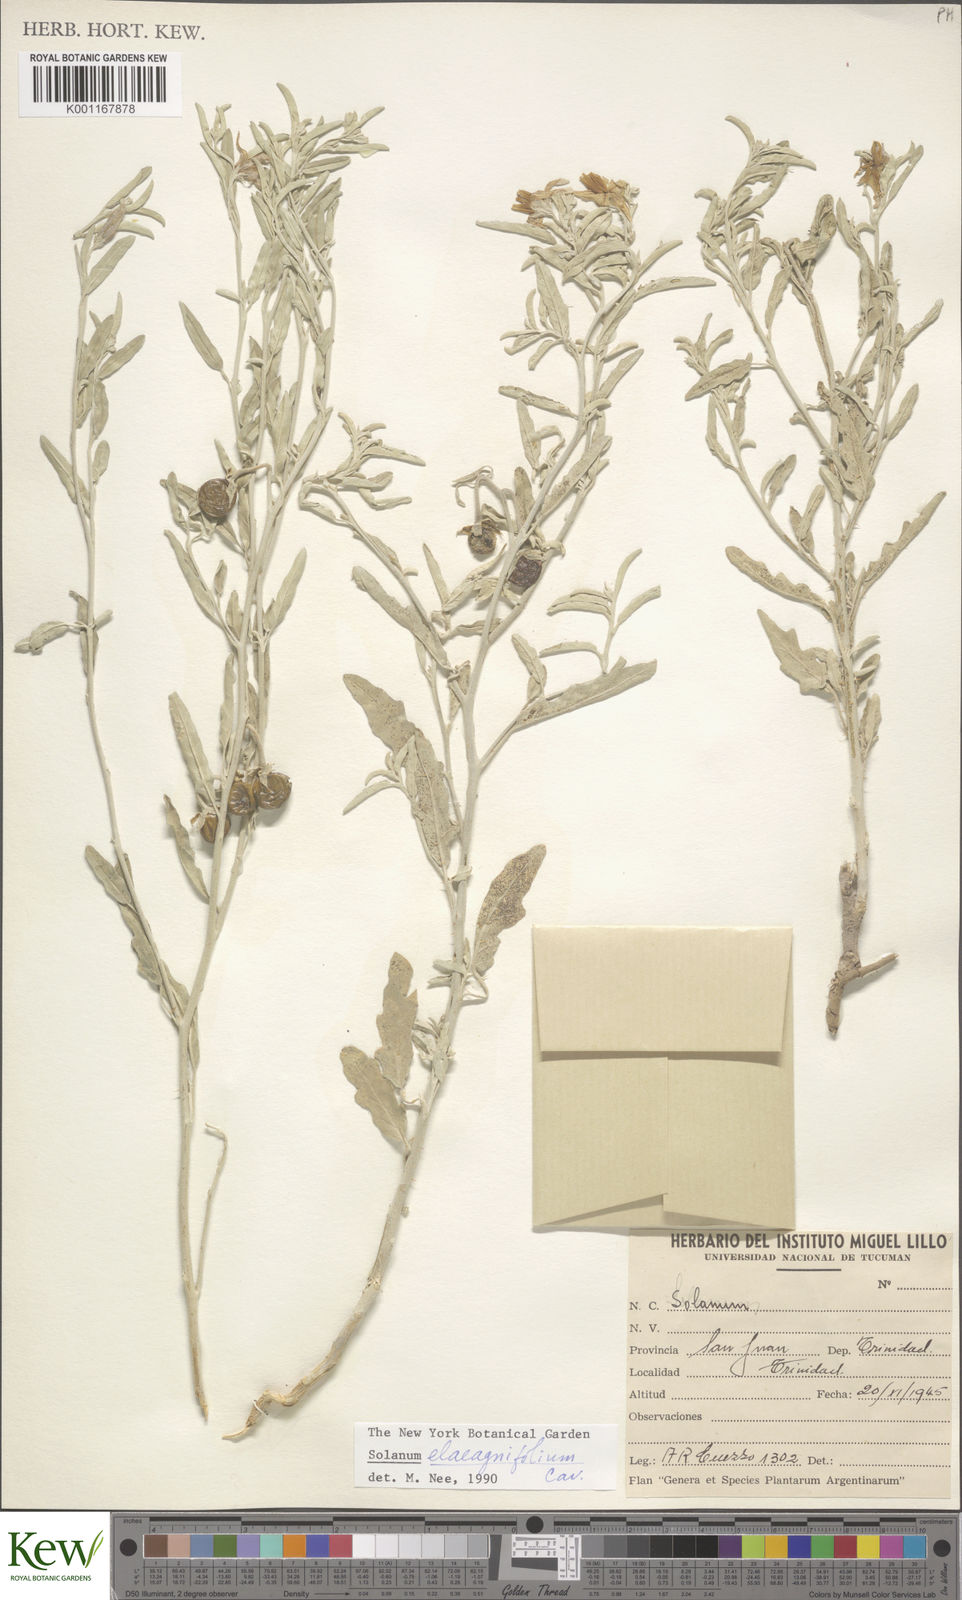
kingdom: Plantae
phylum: Tracheophyta
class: Magnoliopsida
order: Solanales
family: Solanaceae
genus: Solanum
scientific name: Solanum elaeagnifolium
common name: Silverleaf nightshade
